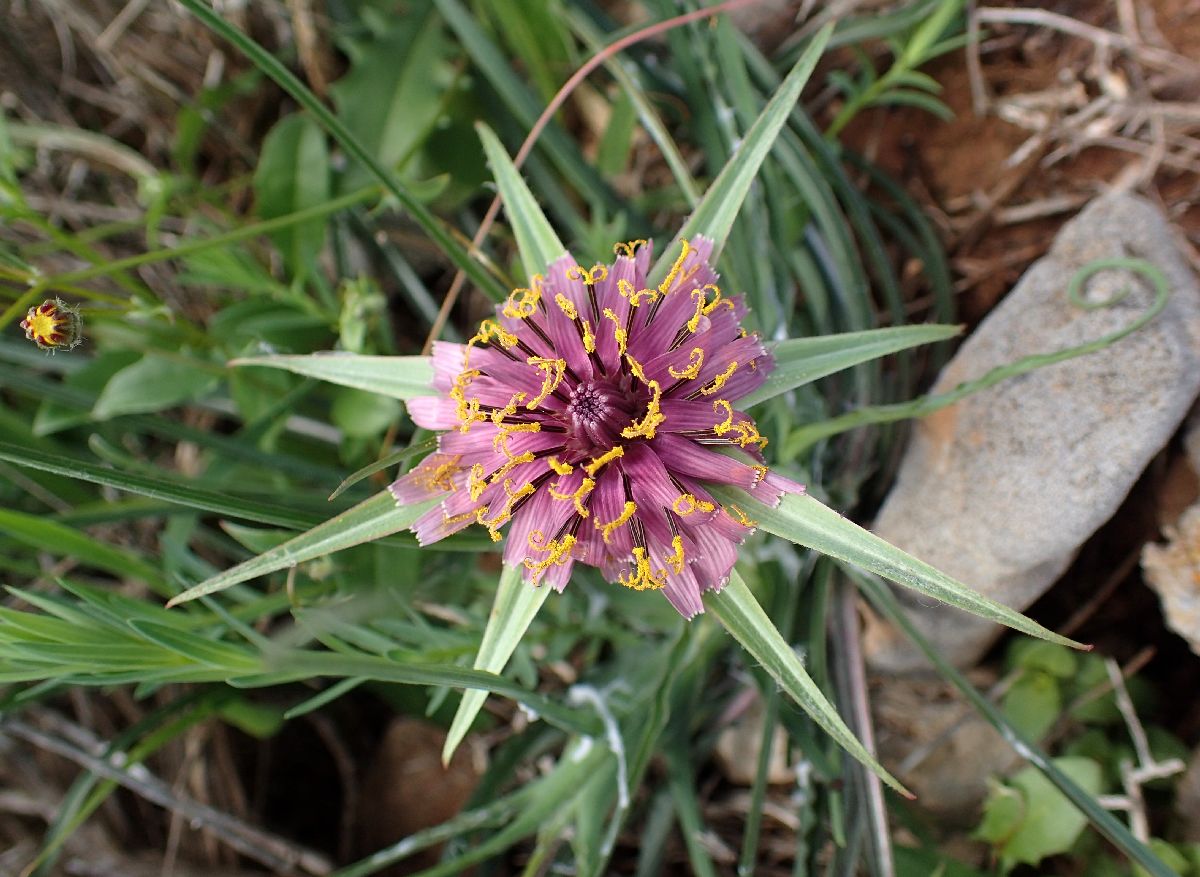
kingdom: Plantae
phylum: Tracheophyta
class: Magnoliopsida
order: Asterales
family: Asteraceae
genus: Tragopogon
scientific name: Tragopogon porrifolius
